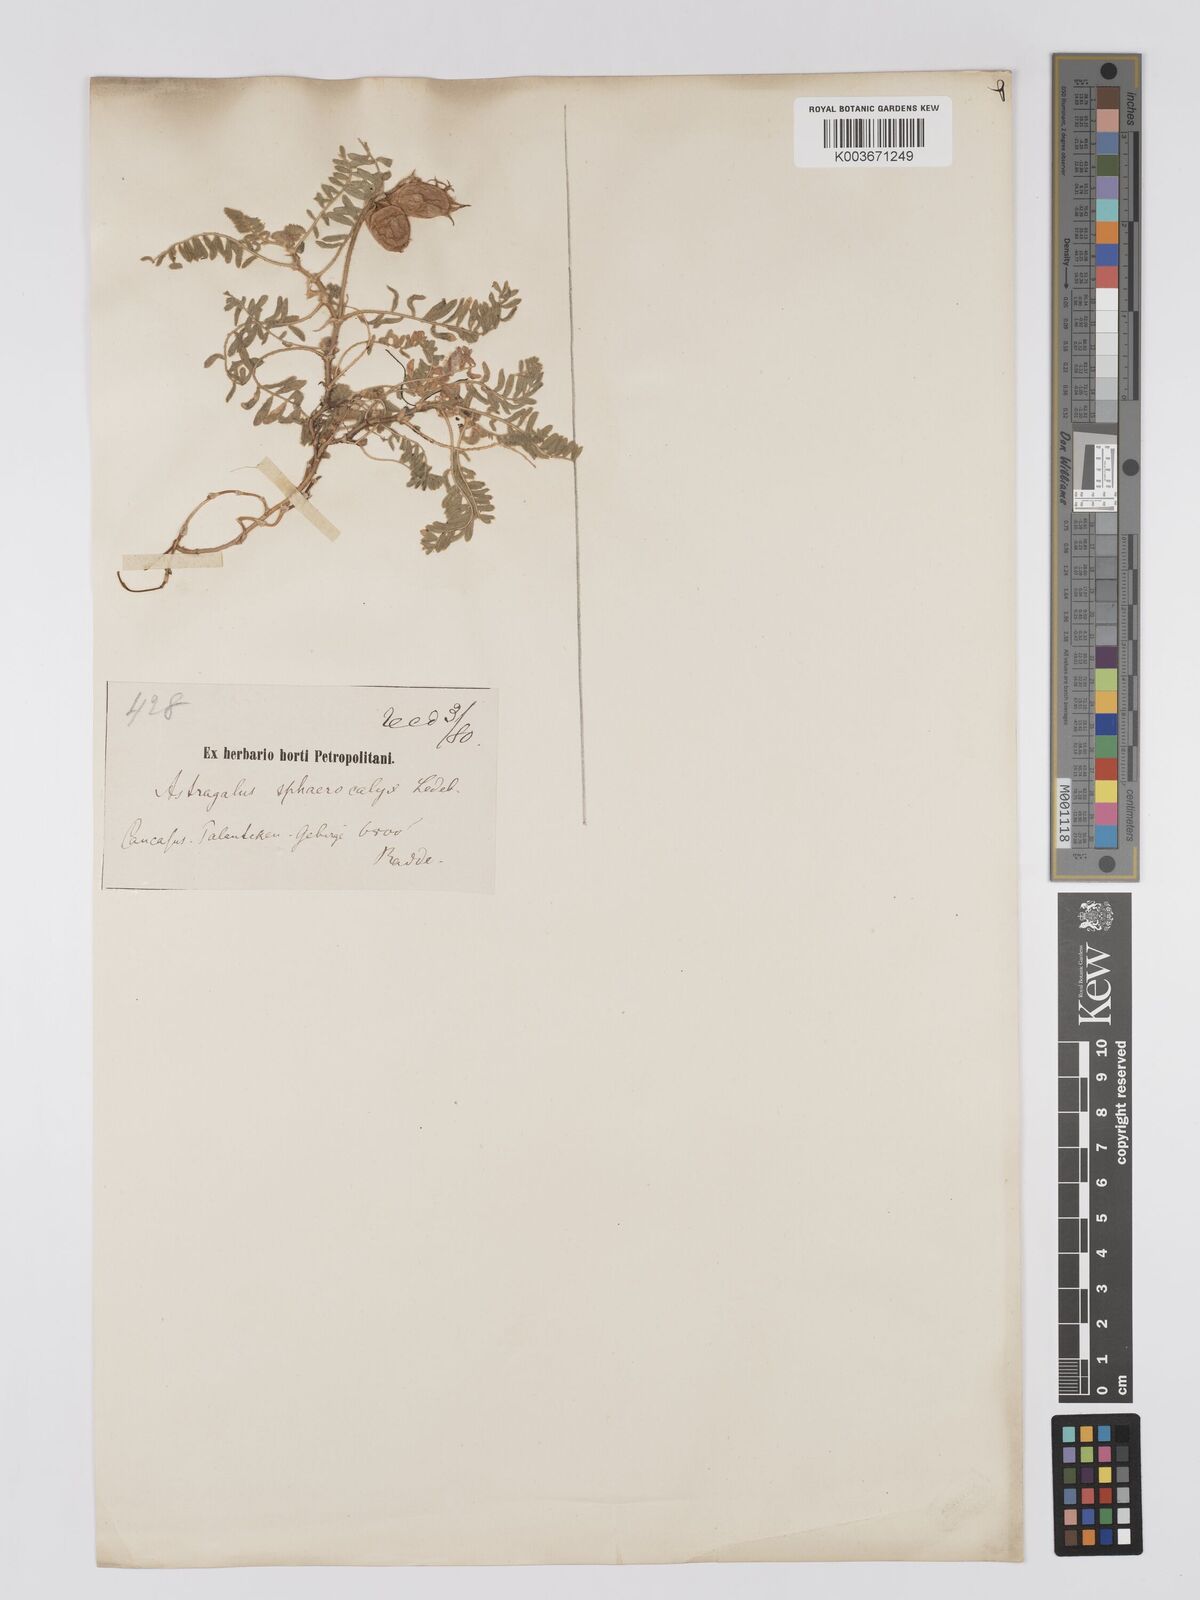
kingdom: Plantae
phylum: Tracheophyta
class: Magnoliopsida
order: Fabales
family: Fabaceae
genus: Astragalus
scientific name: Astragalus lineatus
